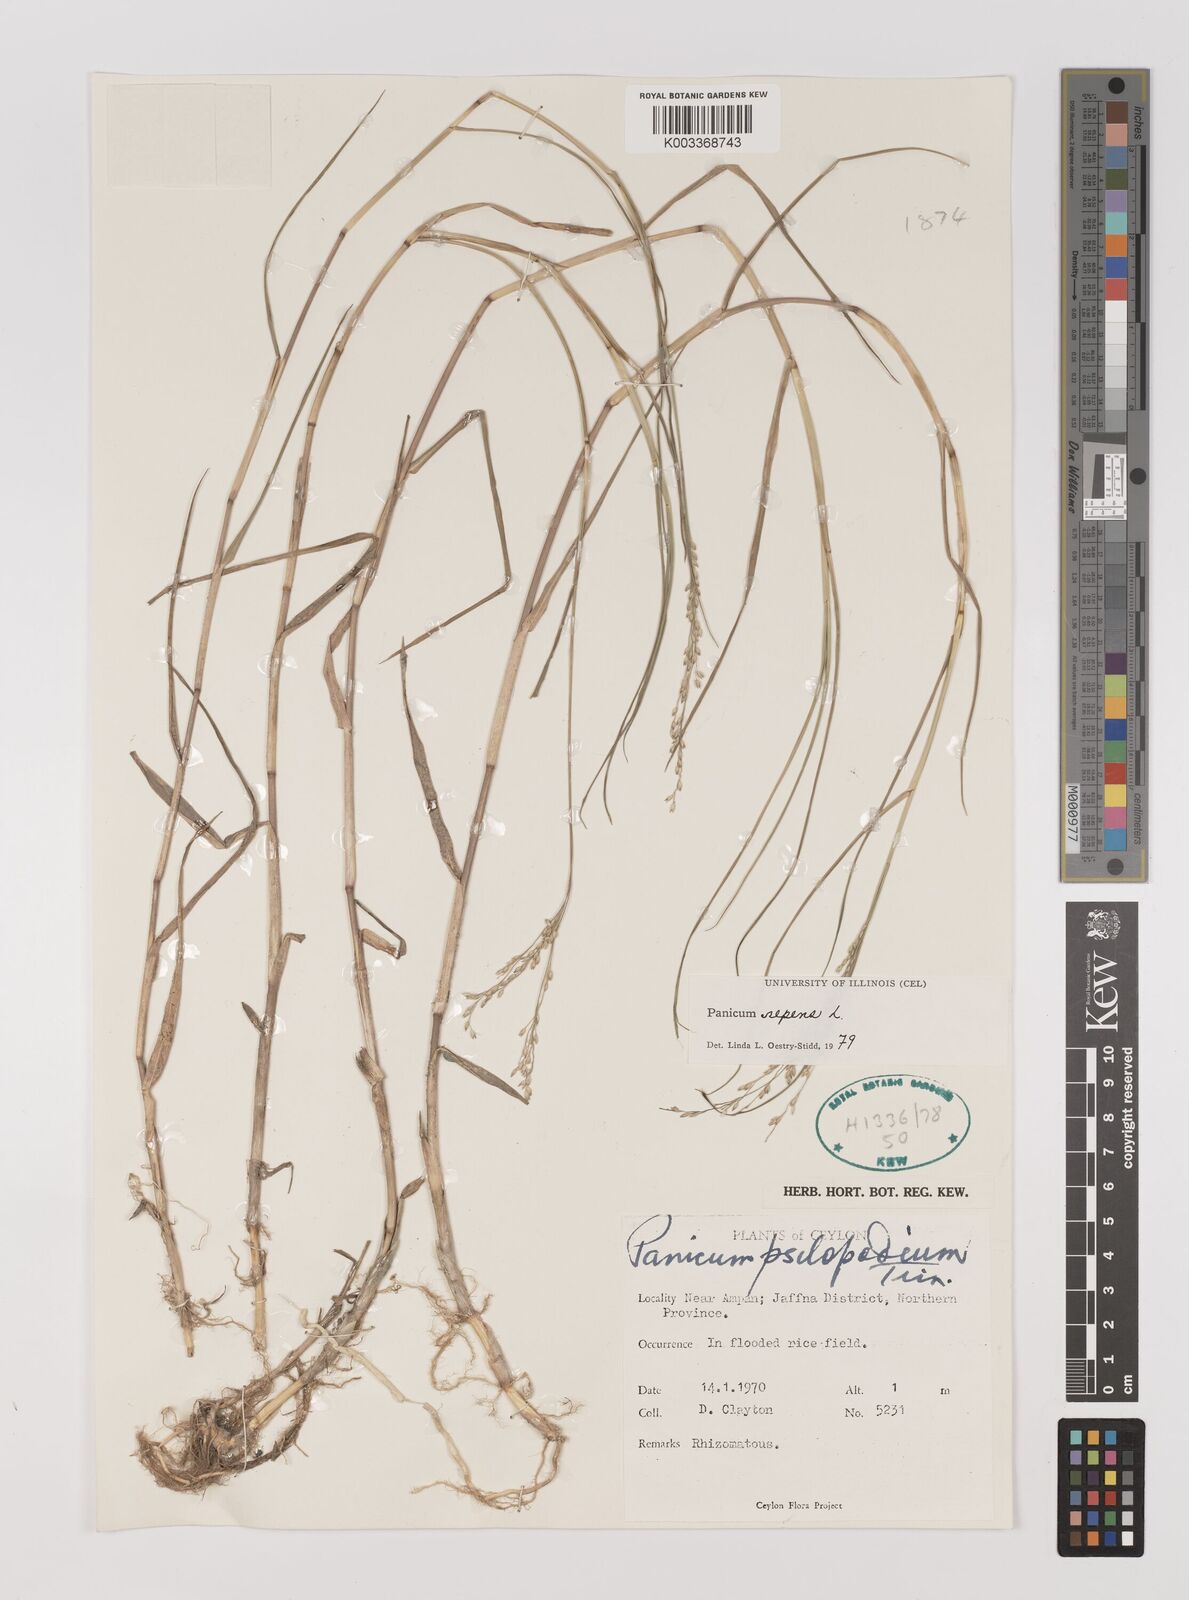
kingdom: Plantae
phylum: Tracheophyta
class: Liliopsida
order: Poales
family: Poaceae
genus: Panicum
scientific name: Panicum repens
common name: Torpedo grass
